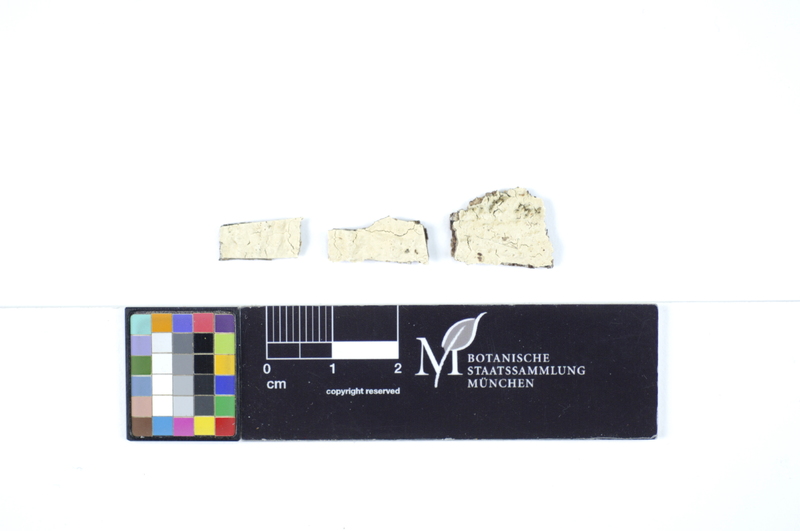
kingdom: Fungi
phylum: Basidiomycota
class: Agaricomycetes
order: Polyporales
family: Hyphodermataceae
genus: Hyphoderma
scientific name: Hyphoderma nemorale
